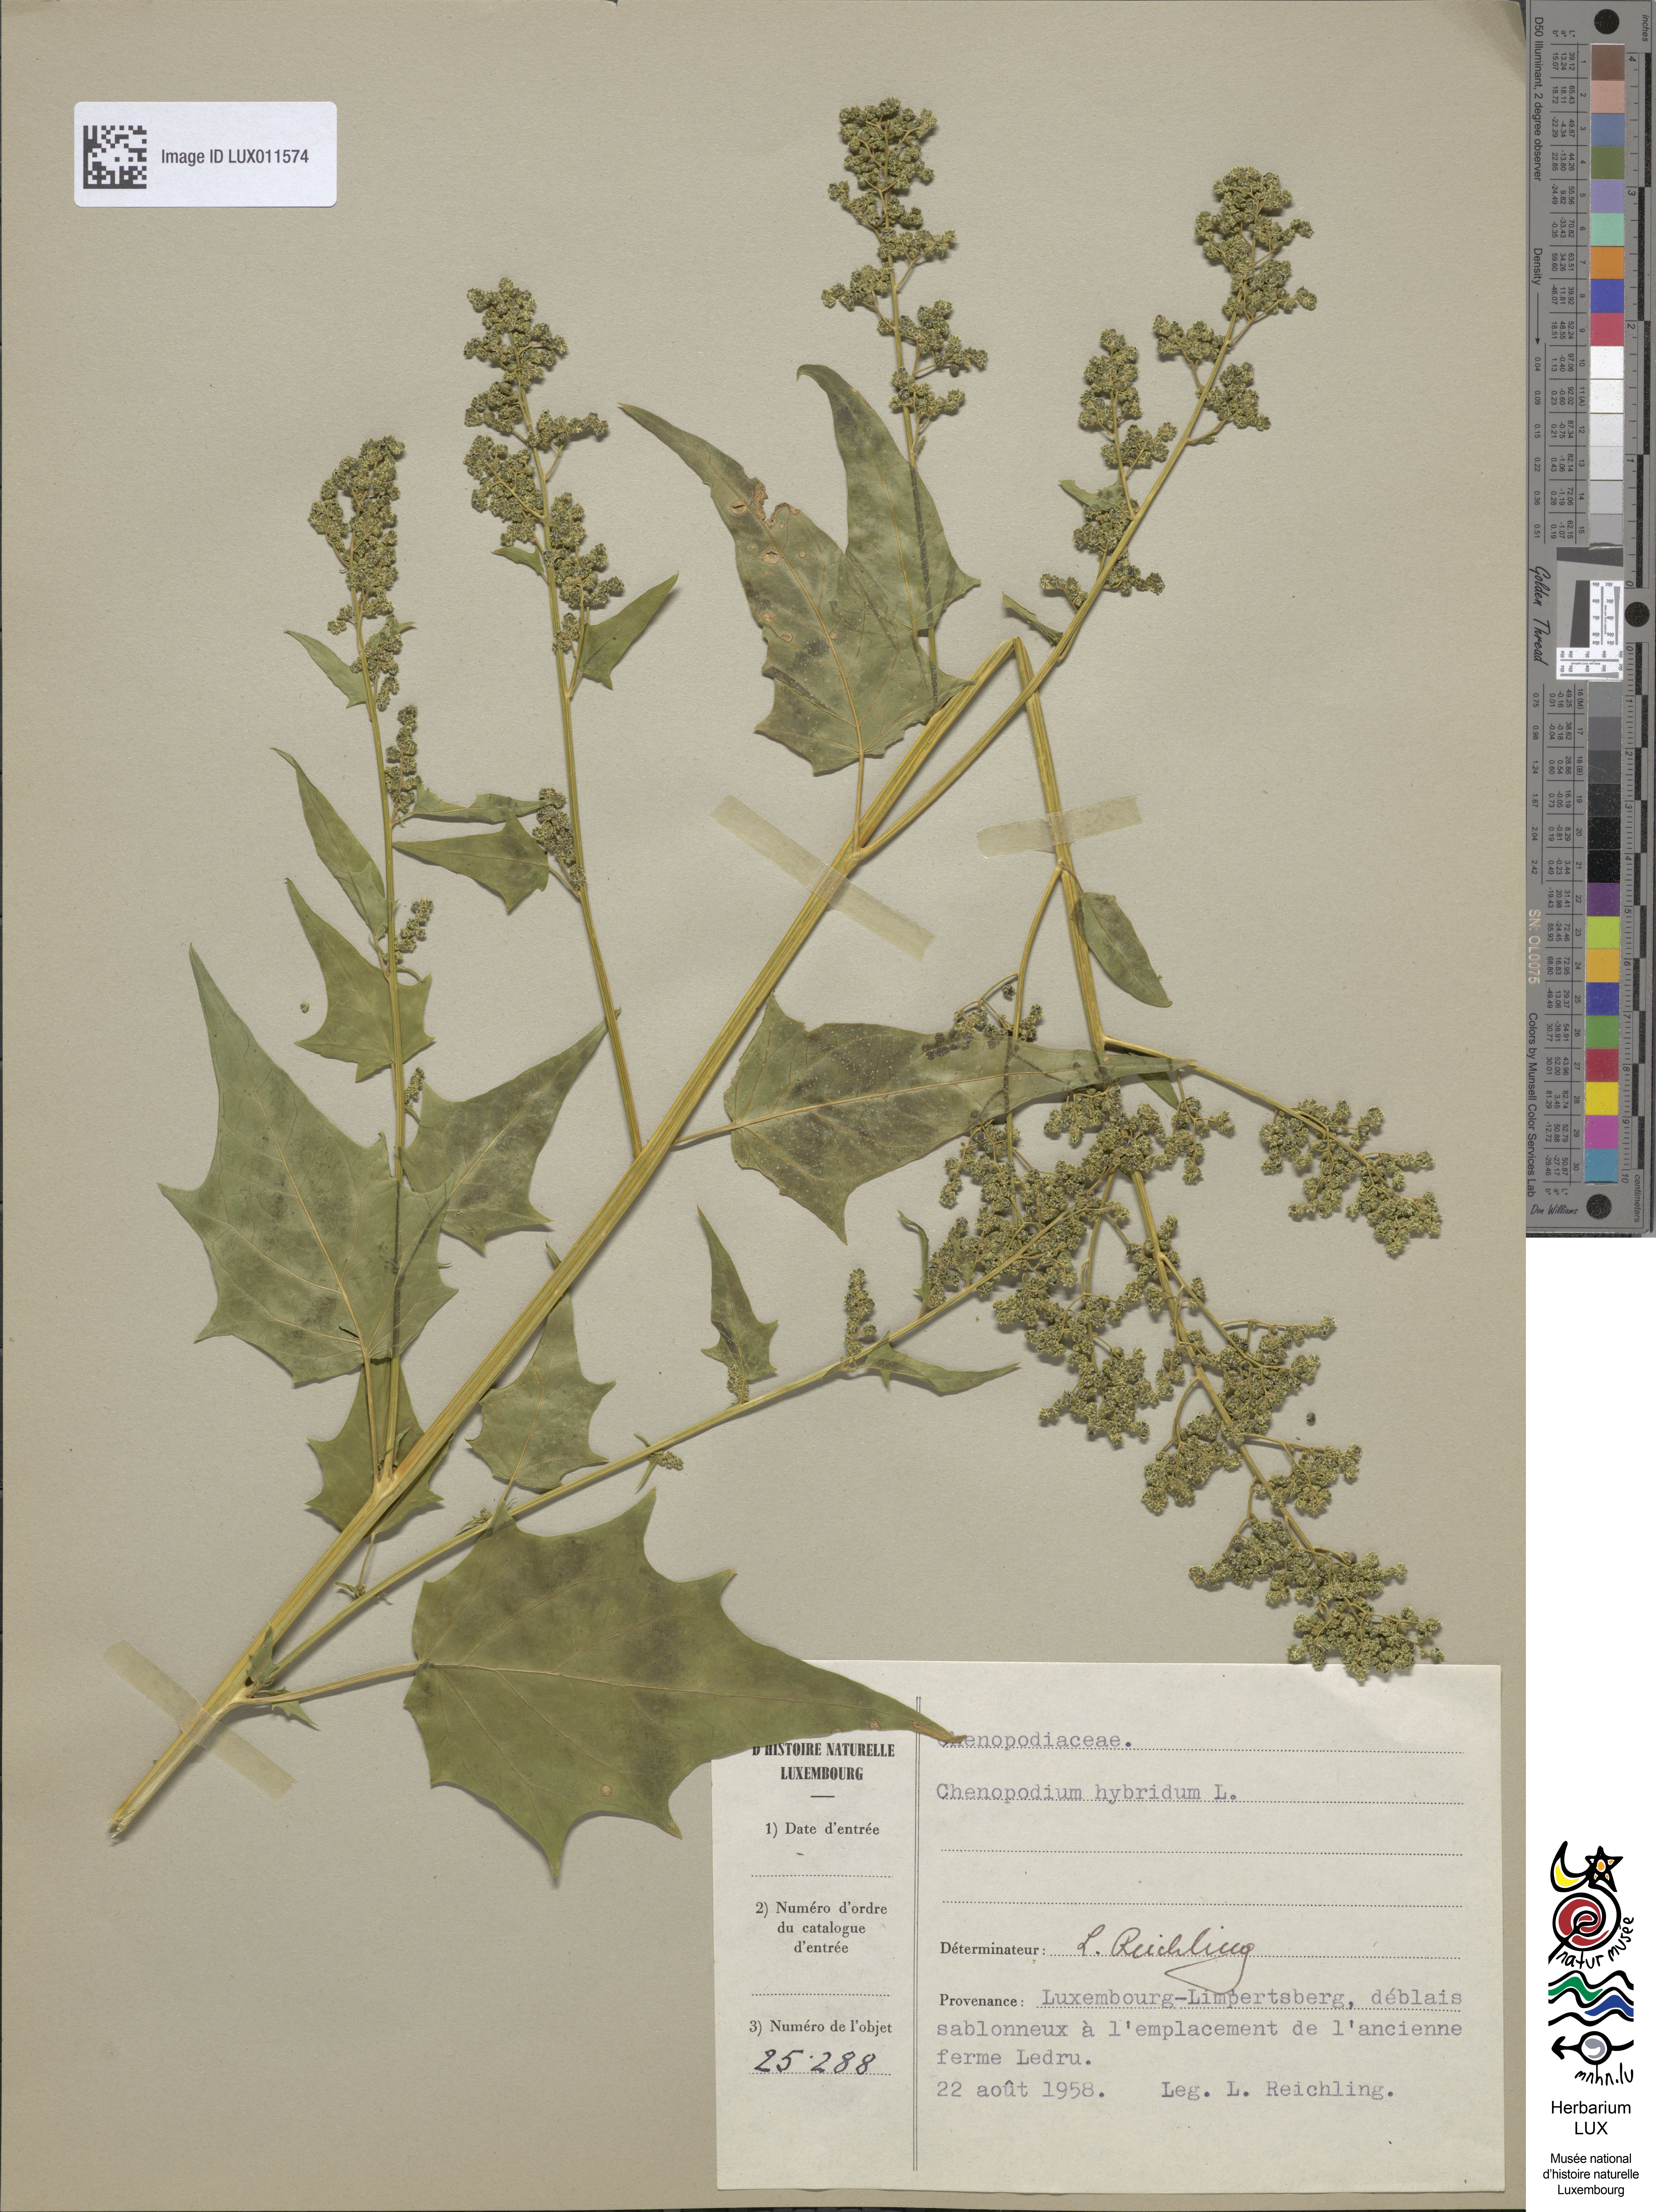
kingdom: Plantae
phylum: Tracheophyta
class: Magnoliopsida
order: Caryophyllales
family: Amaranthaceae
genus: Chenopodiastrum
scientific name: Chenopodiastrum hybridum
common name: Mapleleaf goosefoot
